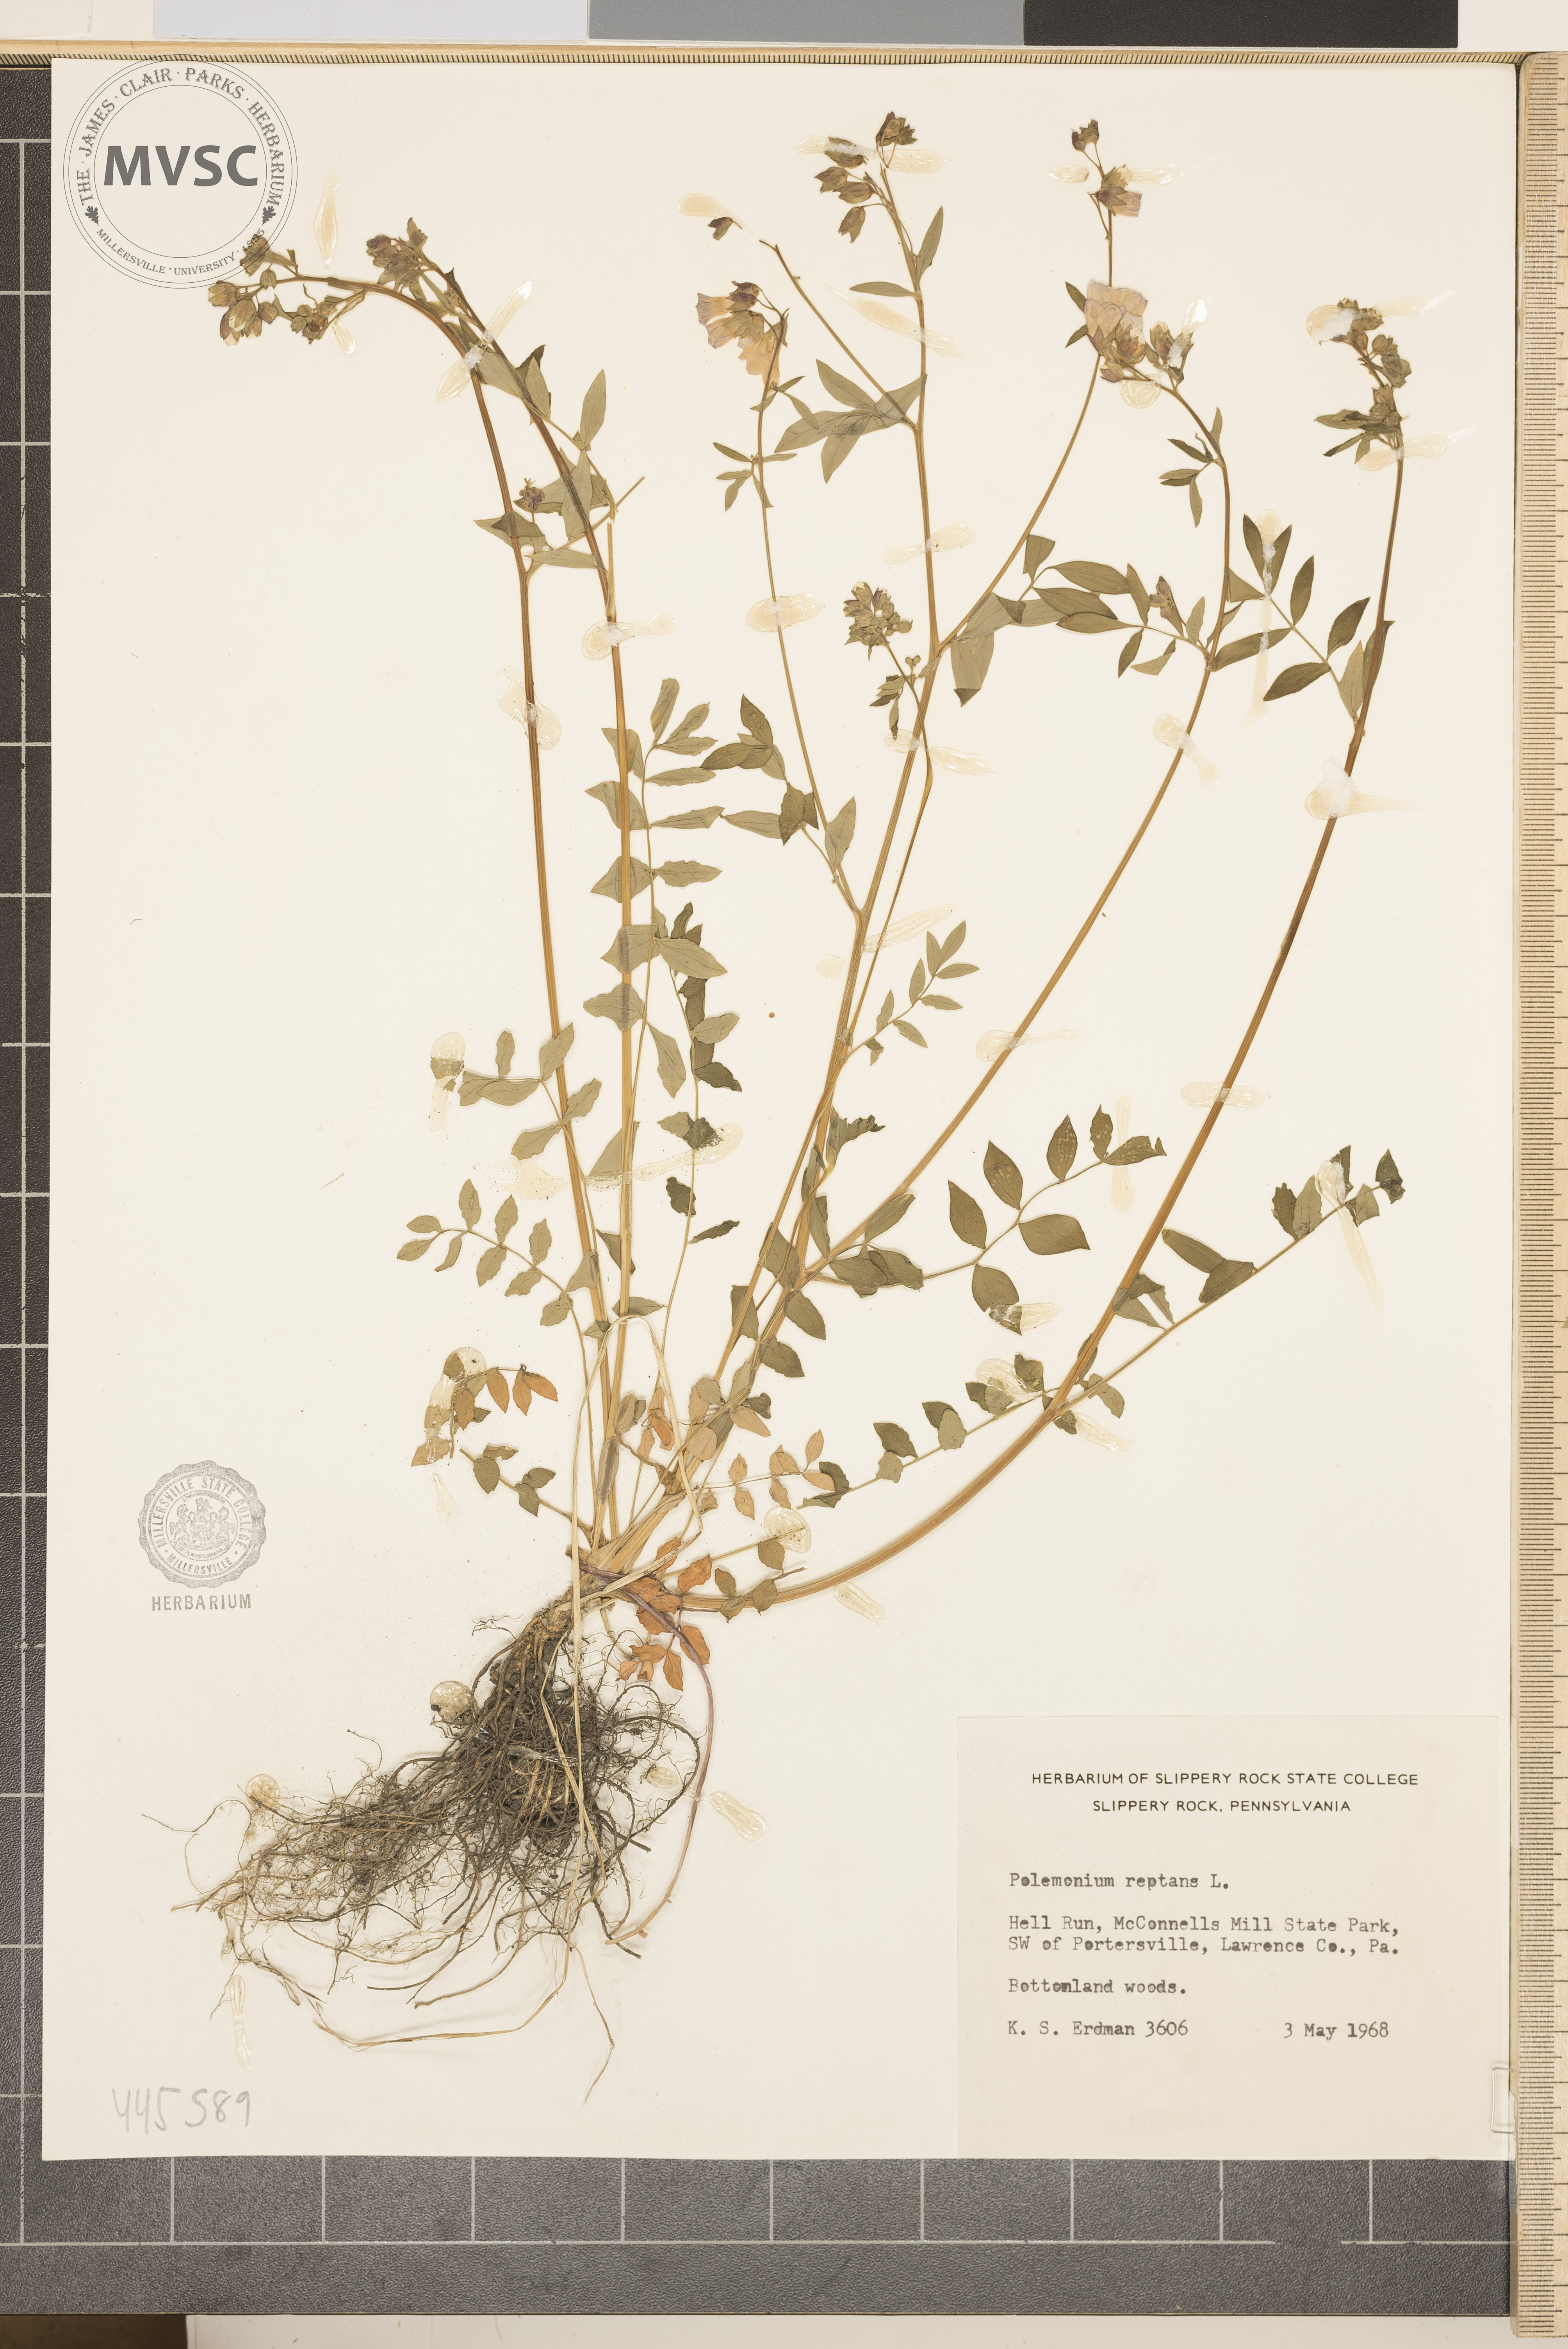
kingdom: Plantae
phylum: Tracheophyta
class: Magnoliopsida
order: Ericales
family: Polemoniaceae
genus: Polemonium
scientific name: Polemonium reptans
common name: Creeping jacob's-ladder
